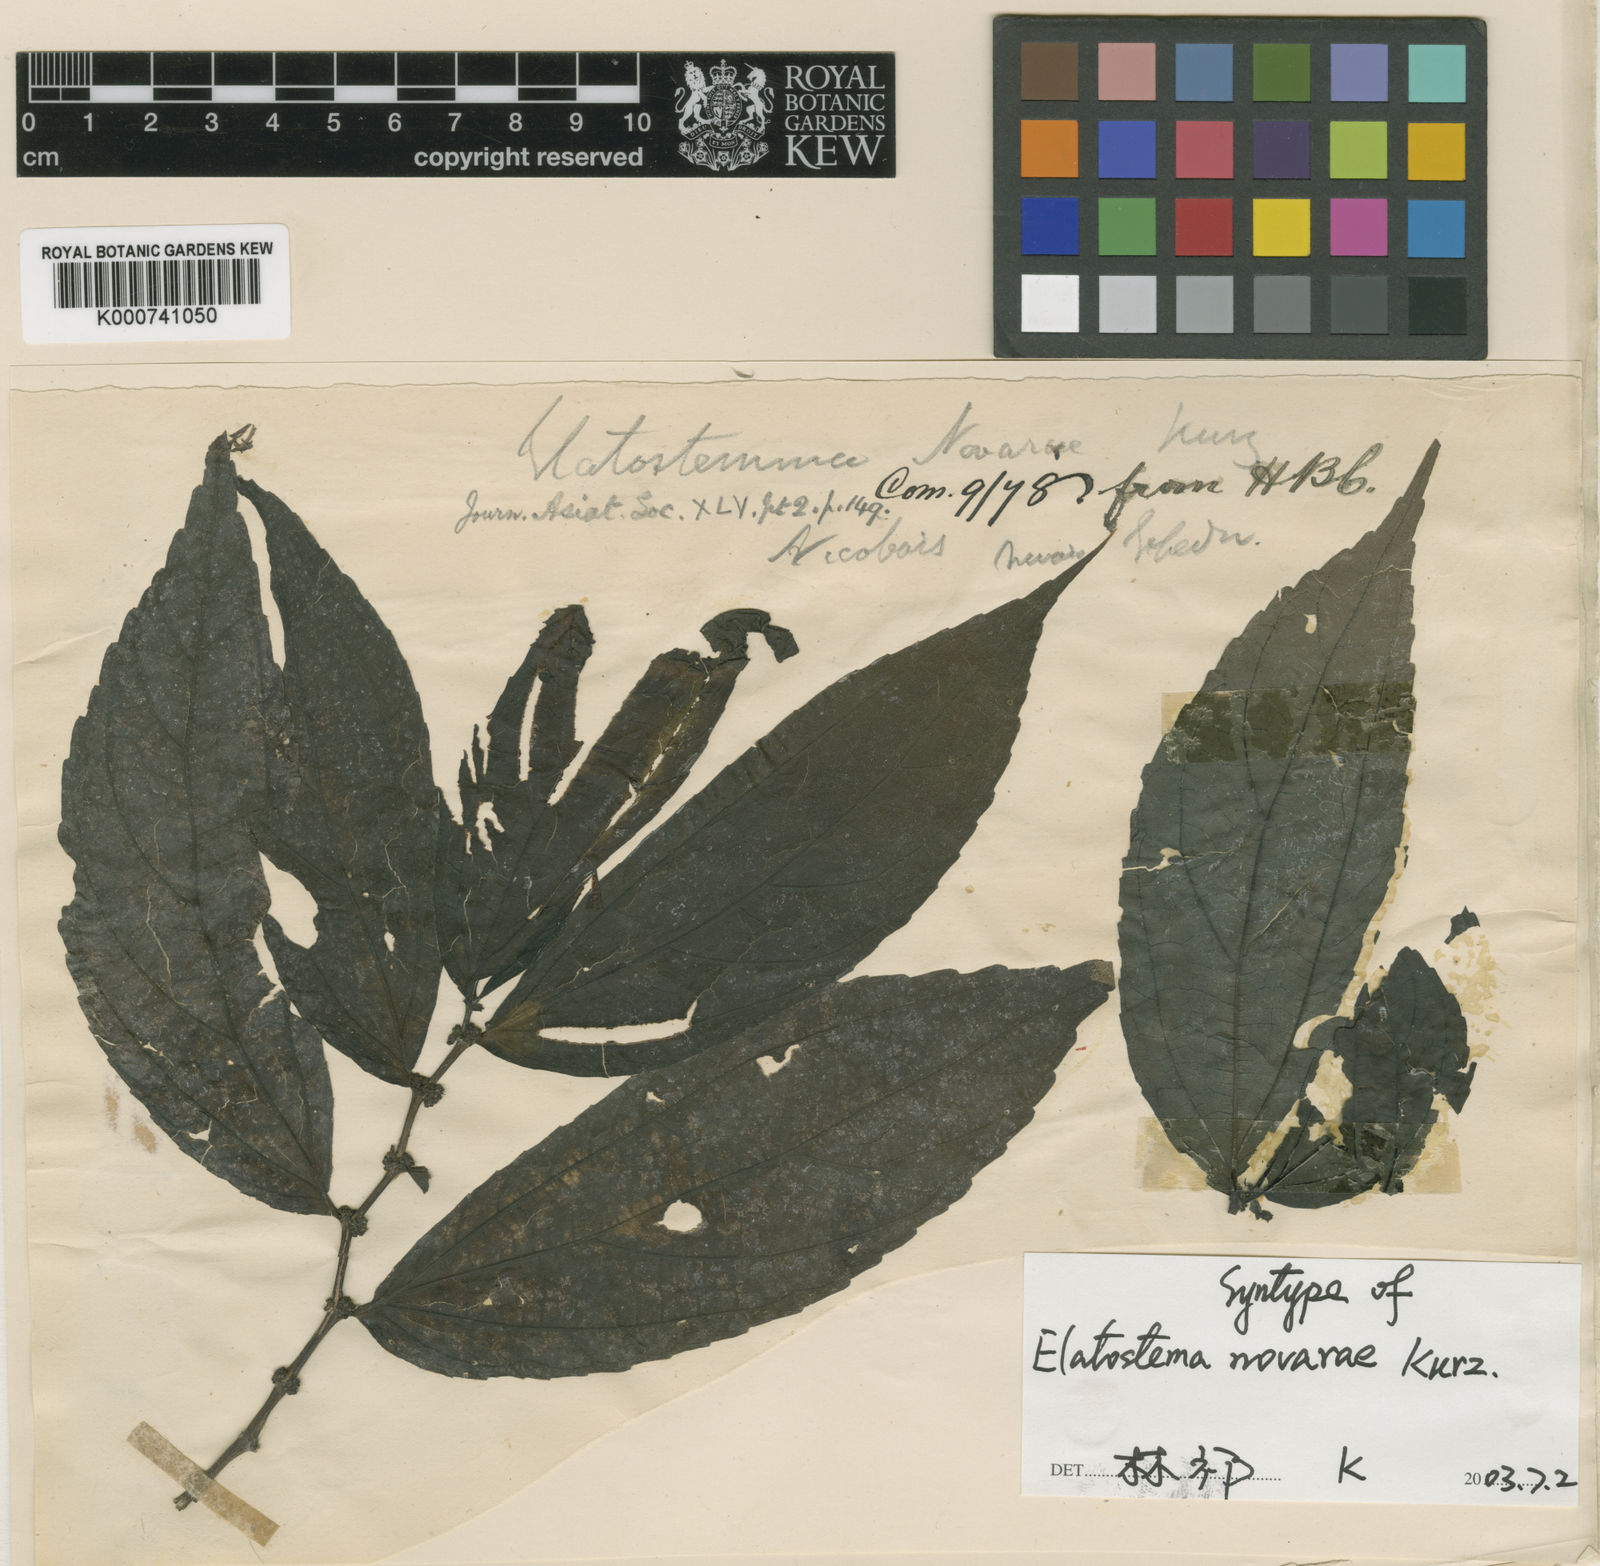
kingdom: Plantae
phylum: Tracheophyta
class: Magnoliopsida
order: Rosales
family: Urticaceae
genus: Elatostema
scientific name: Elatostema rostratum
